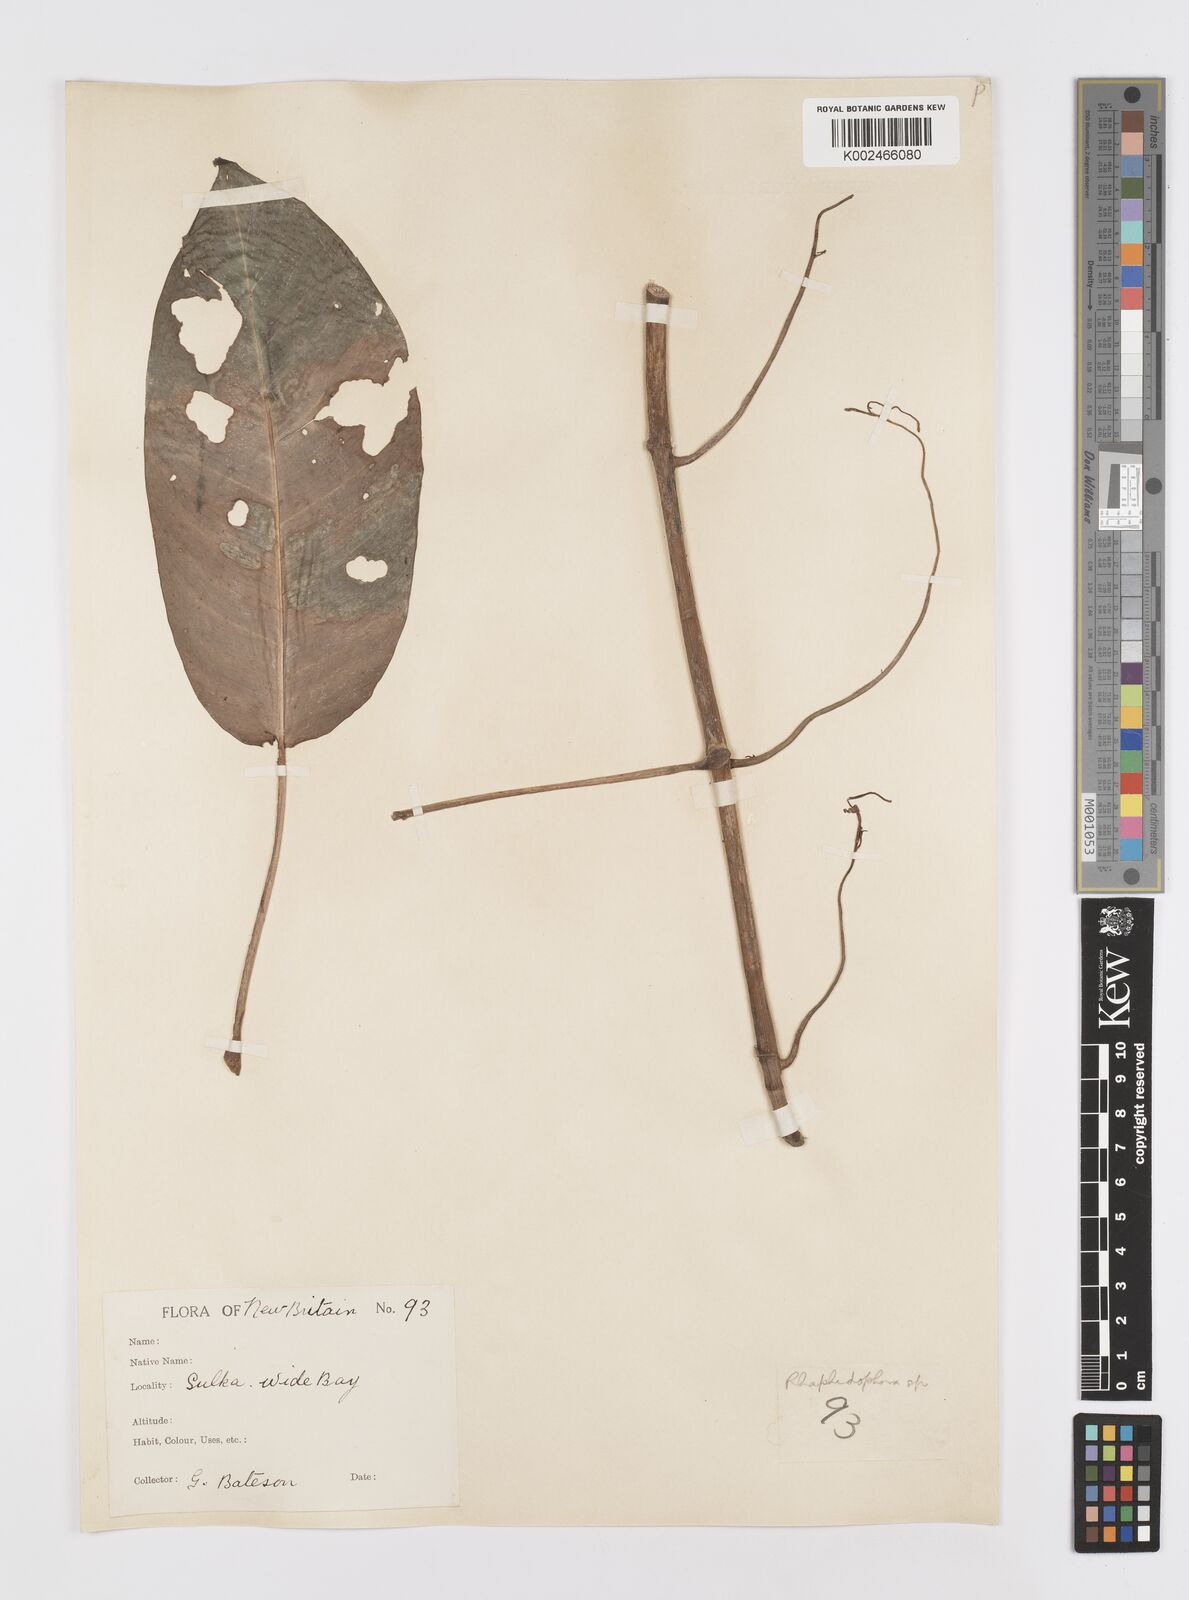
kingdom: Plantae
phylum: Tracheophyta
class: Liliopsida
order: Alismatales
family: Araceae
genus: Rhaphidophora
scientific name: Rhaphidophora mima
